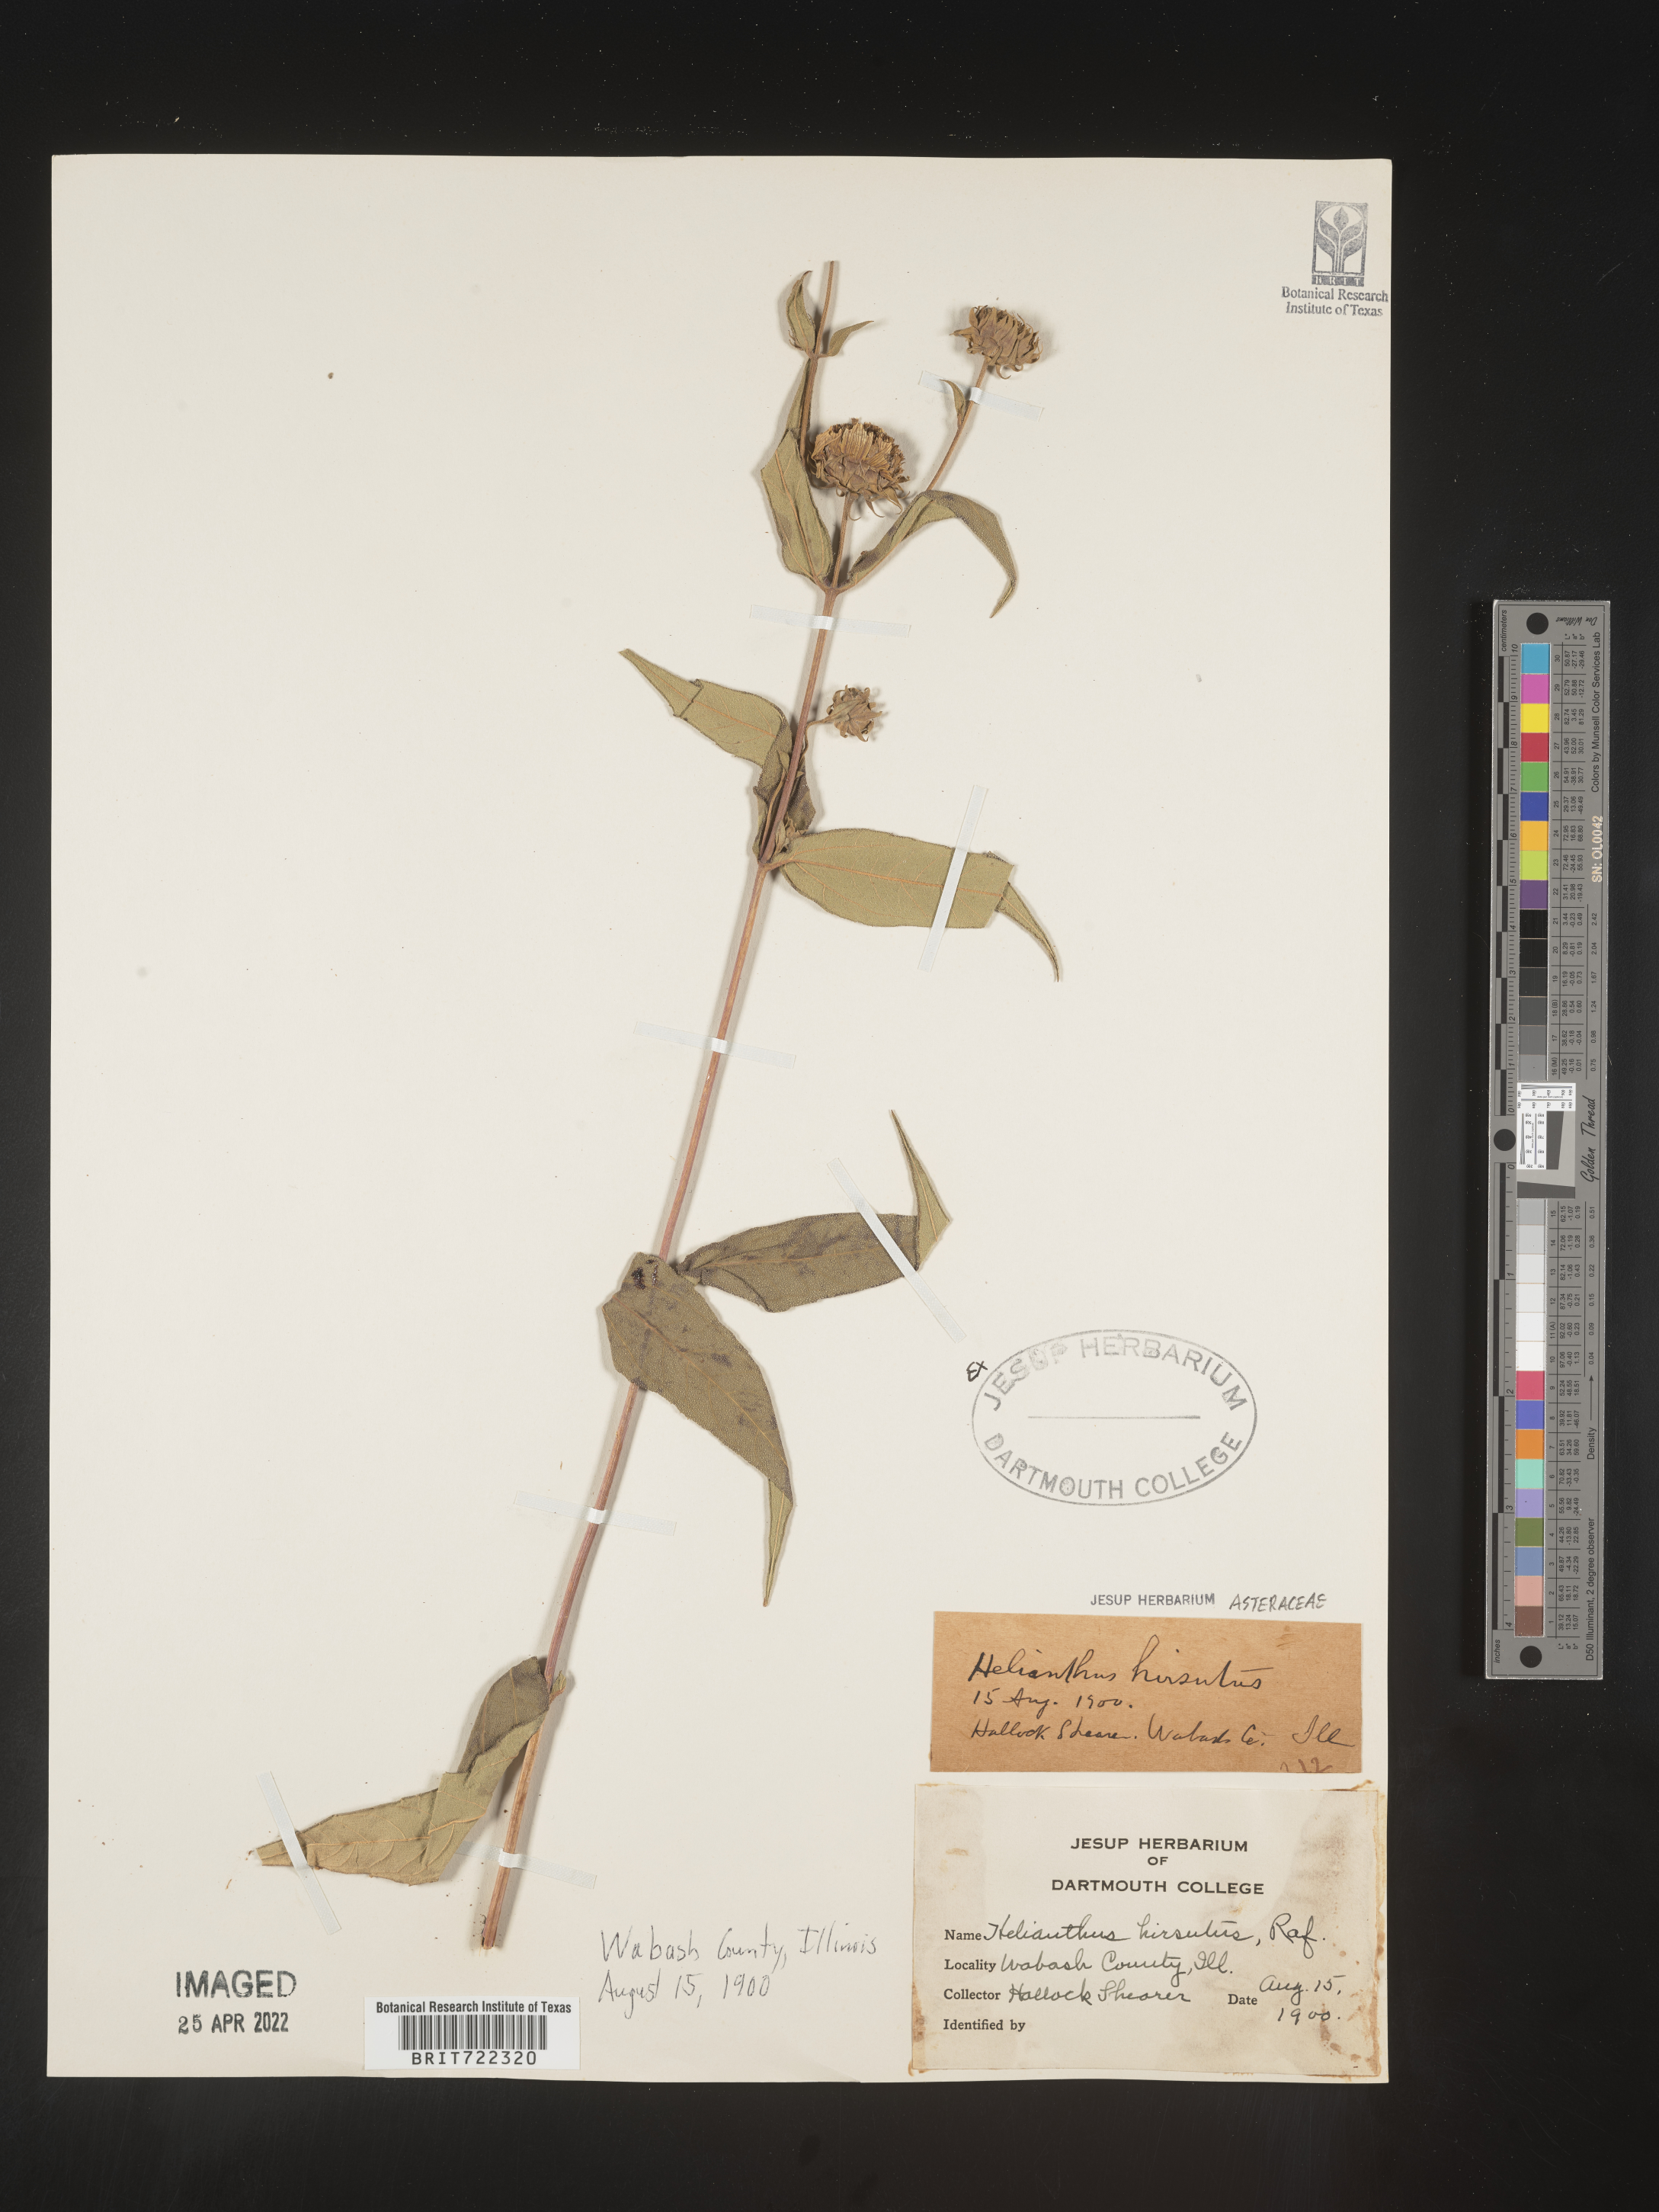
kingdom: Plantae
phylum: Tracheophyta
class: Magnoliopsida
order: Asterales
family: Asteraceae
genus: Helianthus
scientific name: Helianthus hirsutus
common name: Hairy sunflower
